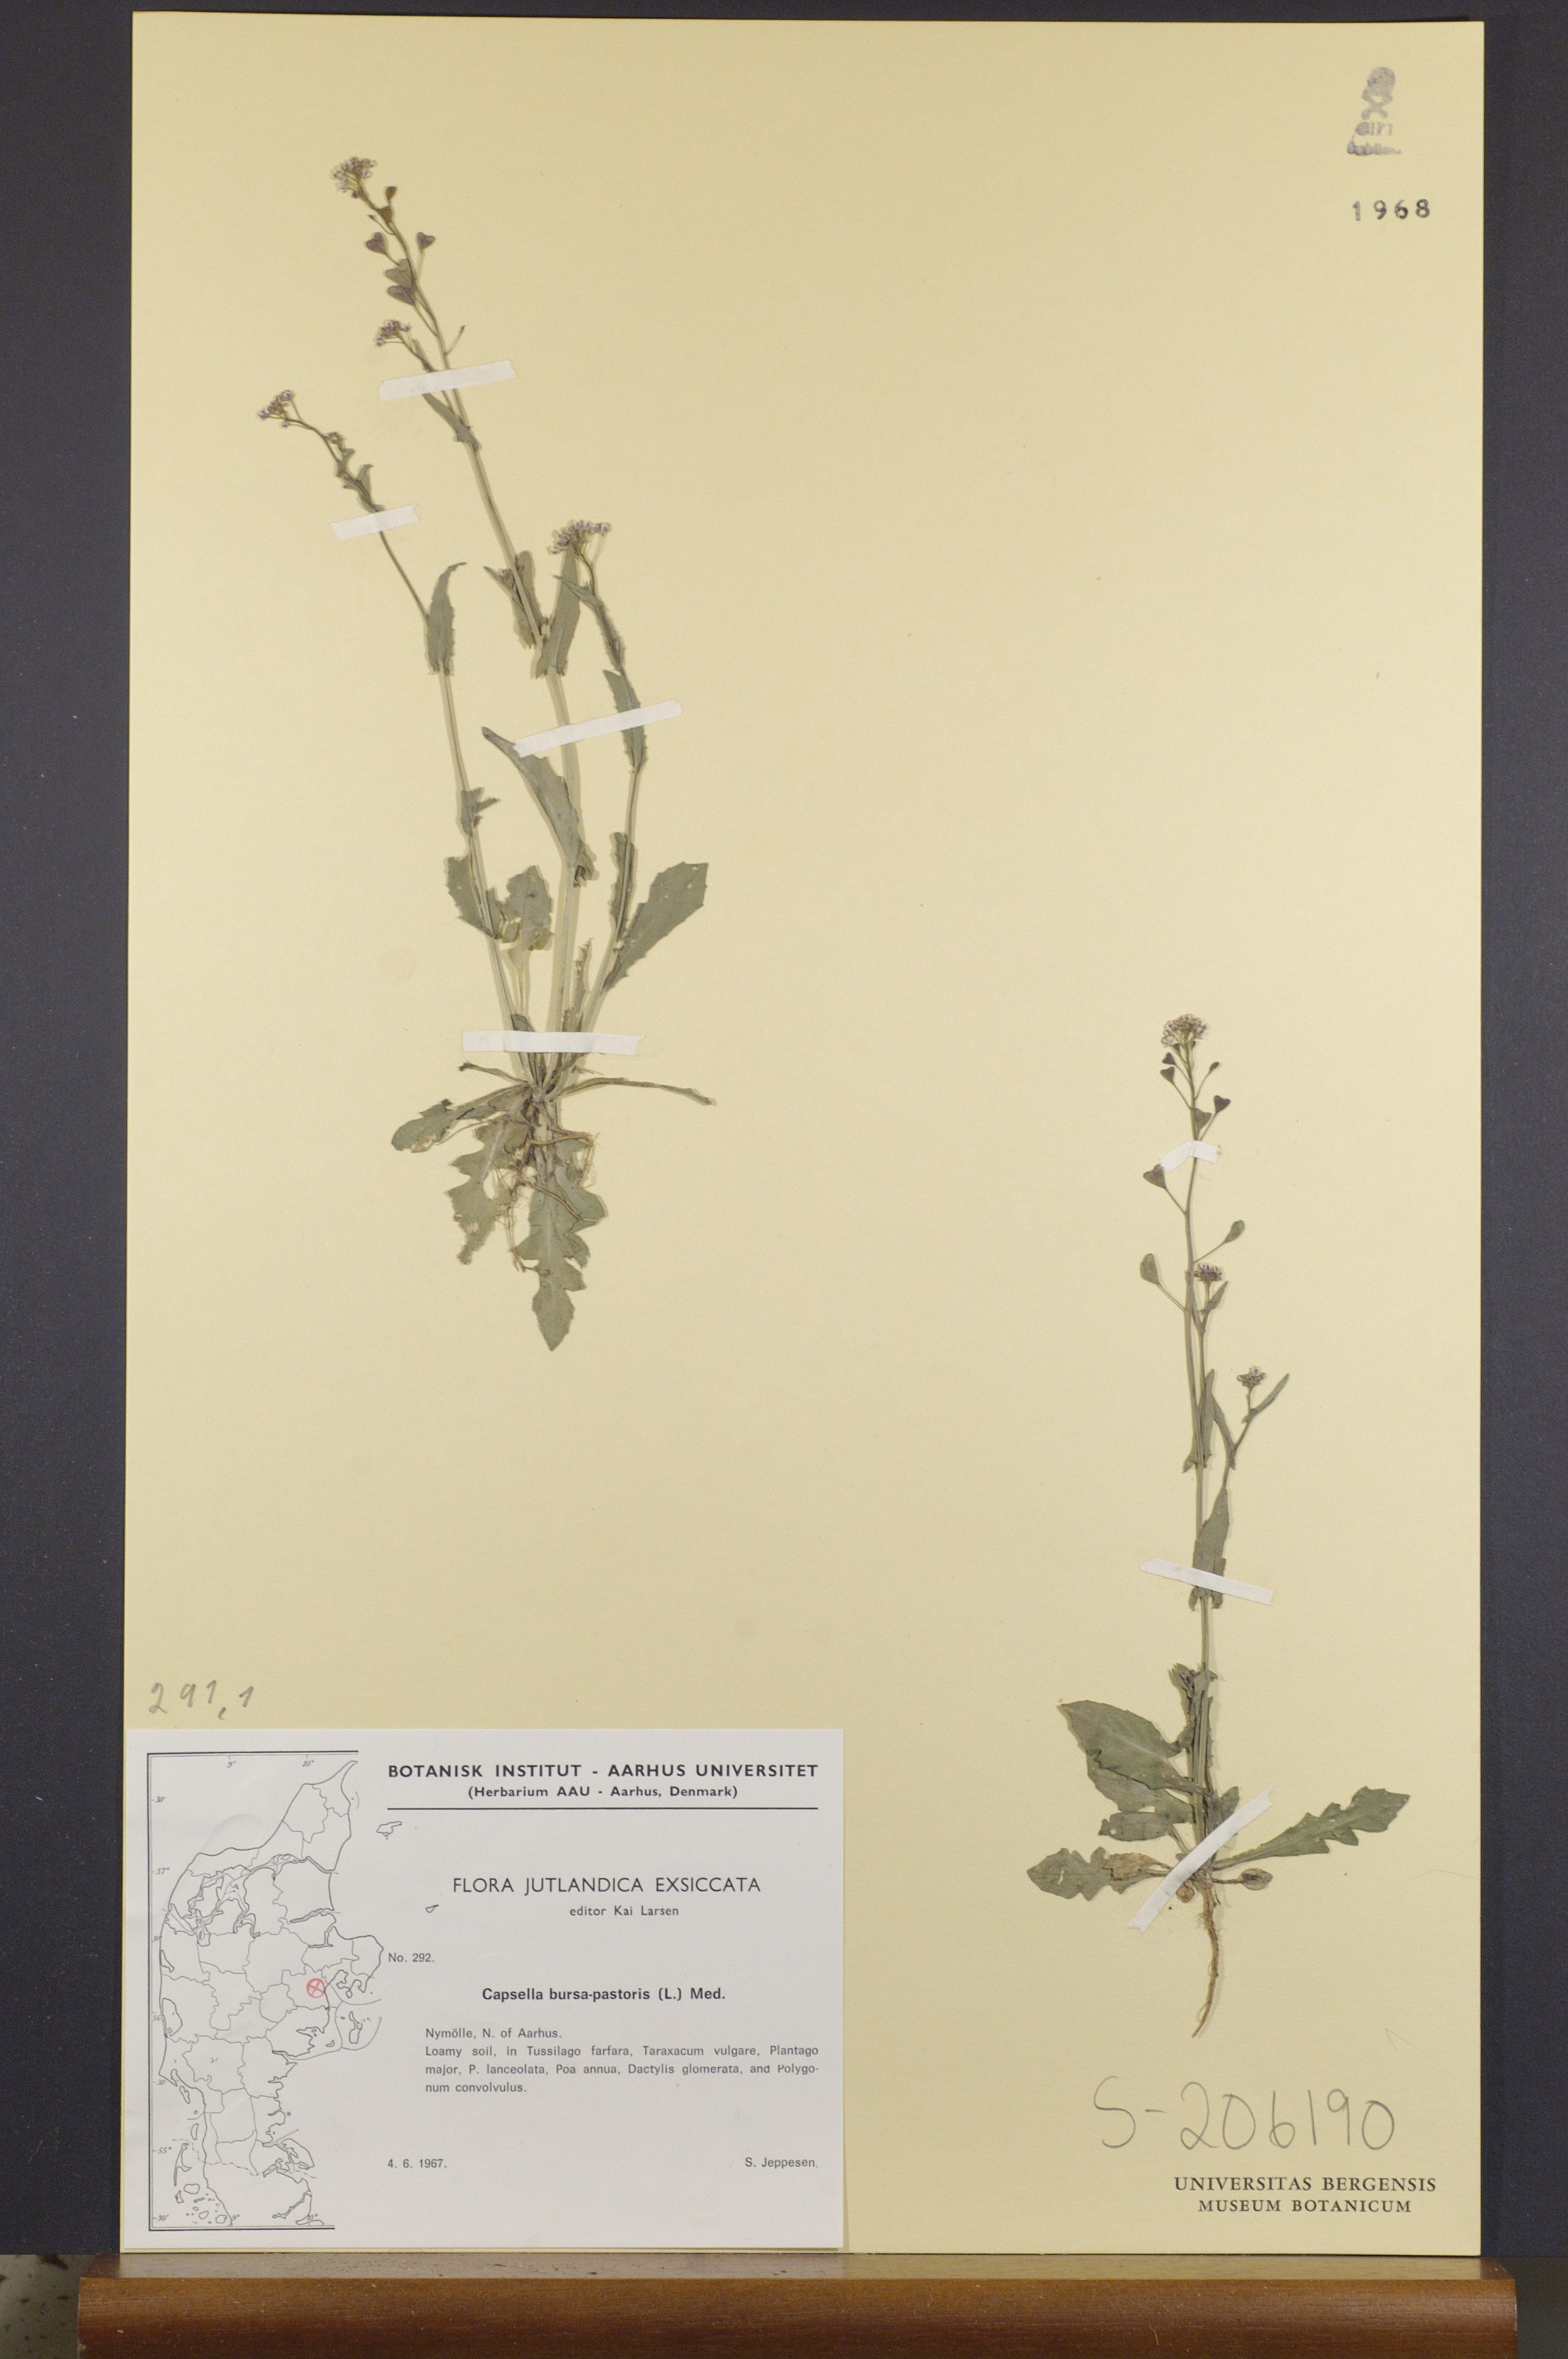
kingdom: Plantae
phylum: Tracheophyta
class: Magnoliopsida
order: Brassicales
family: Brassicaceae
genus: Capsella
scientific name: Capsella bursa-pastoris
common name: Shepherd's purse
